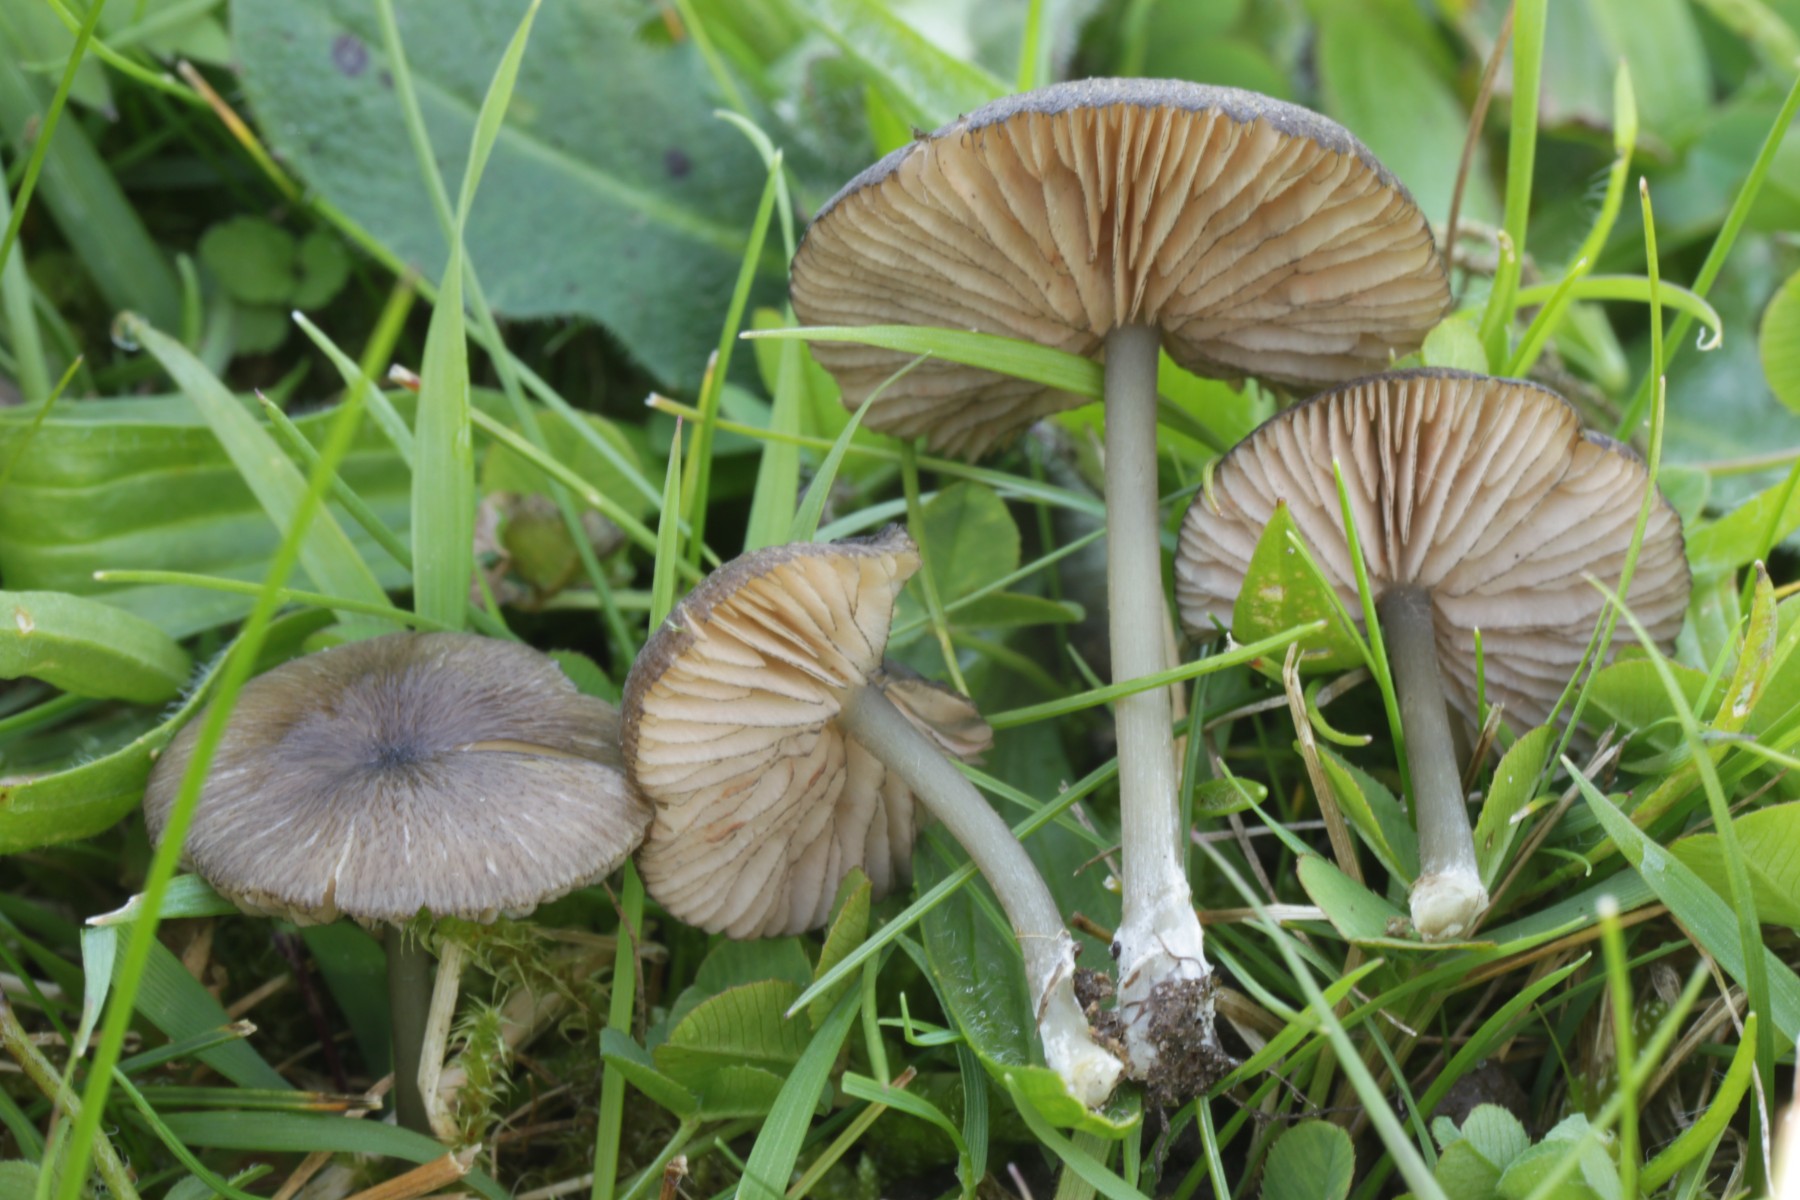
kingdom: Fungi
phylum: Basidiomycota
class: Agaricomycetes
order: Agaricales
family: Entolomataceae
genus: Entoloma
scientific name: Entoloma
